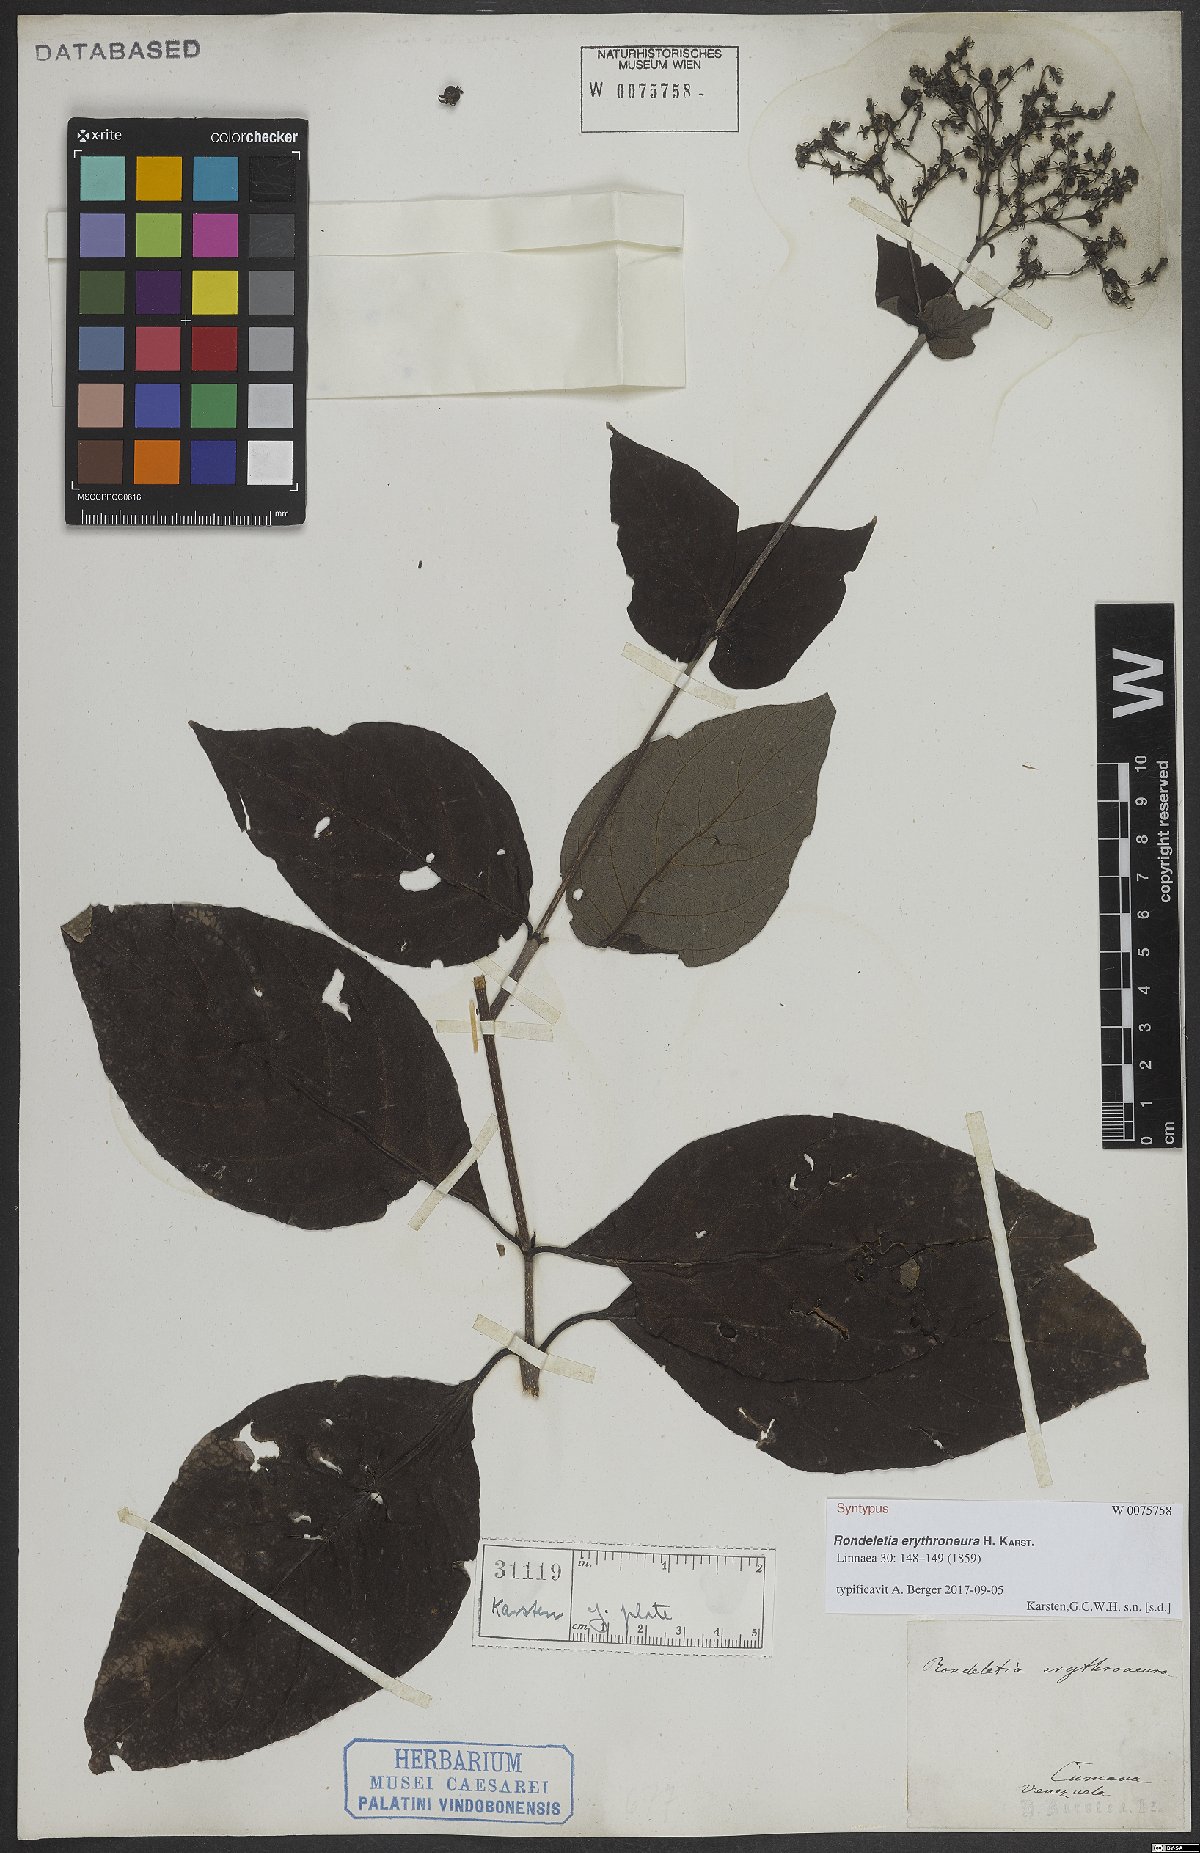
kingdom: Plantae
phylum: Tracheophyta
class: Magnoliopsida
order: Gentianales
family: Rubiaceae
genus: Rondeletia
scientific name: Rondeletia erythroneura
